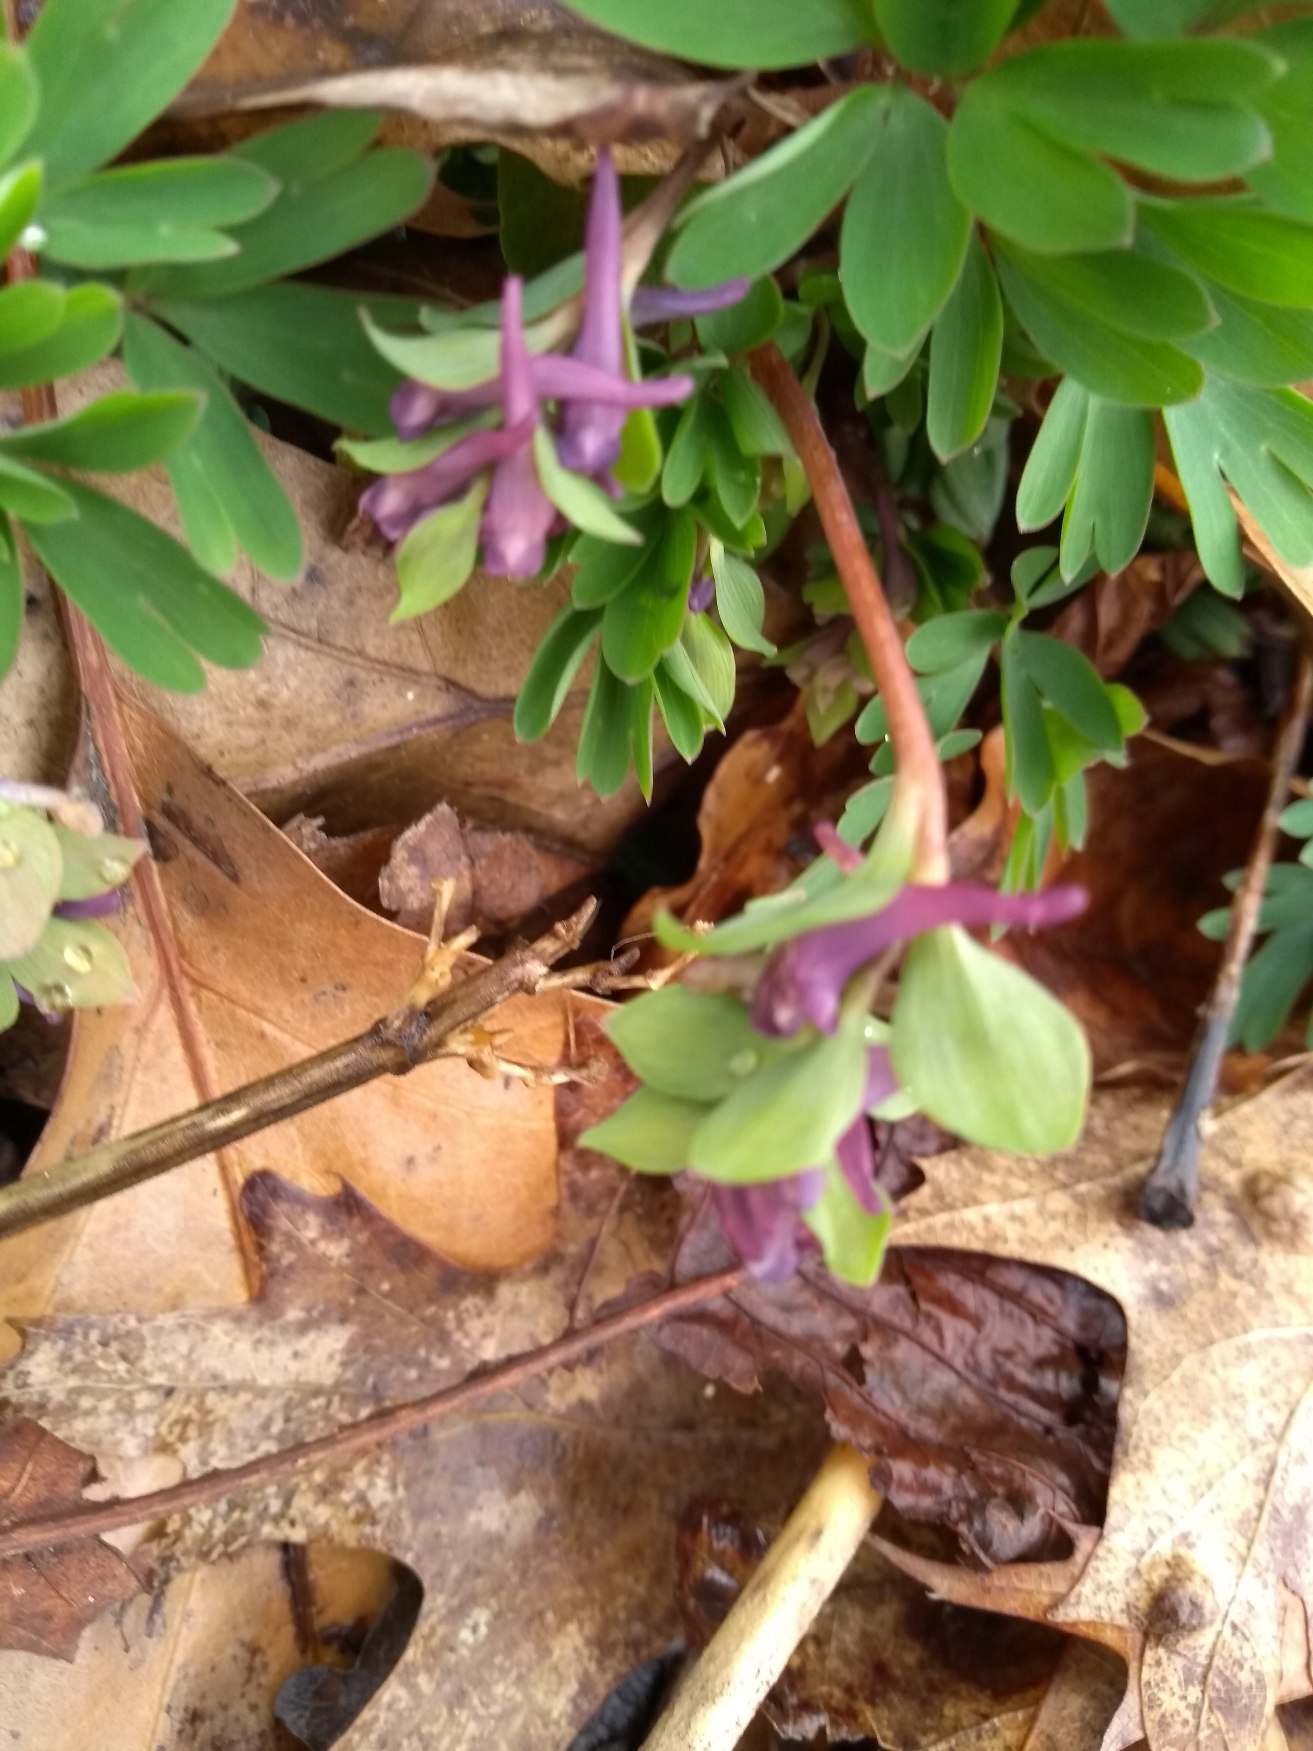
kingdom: Plantae
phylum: Tracheophyta
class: Magnoliopsida
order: Ranunculales
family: Papaveraceae
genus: Corydalis
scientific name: Corydalis intermedia
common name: Liden lærkespore
